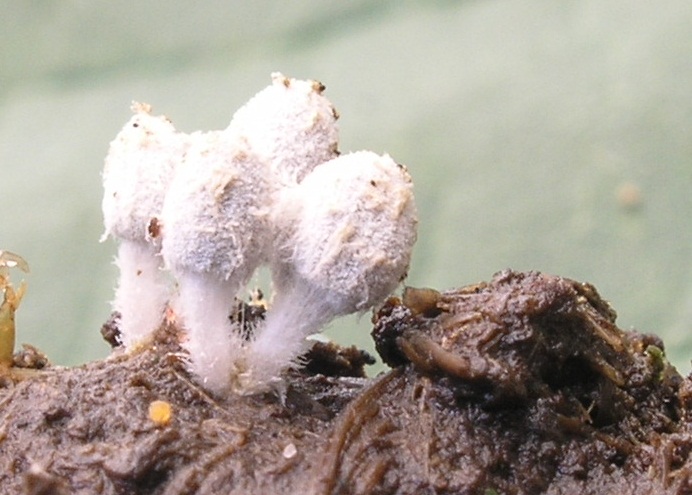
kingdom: Fungi
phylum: Basidiomycota
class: Agaricomycetes
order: Agaricales
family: Psathyrellaceae
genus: Coprinopsis
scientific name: Coprinopsis stercorea
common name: pjusket blækhat
